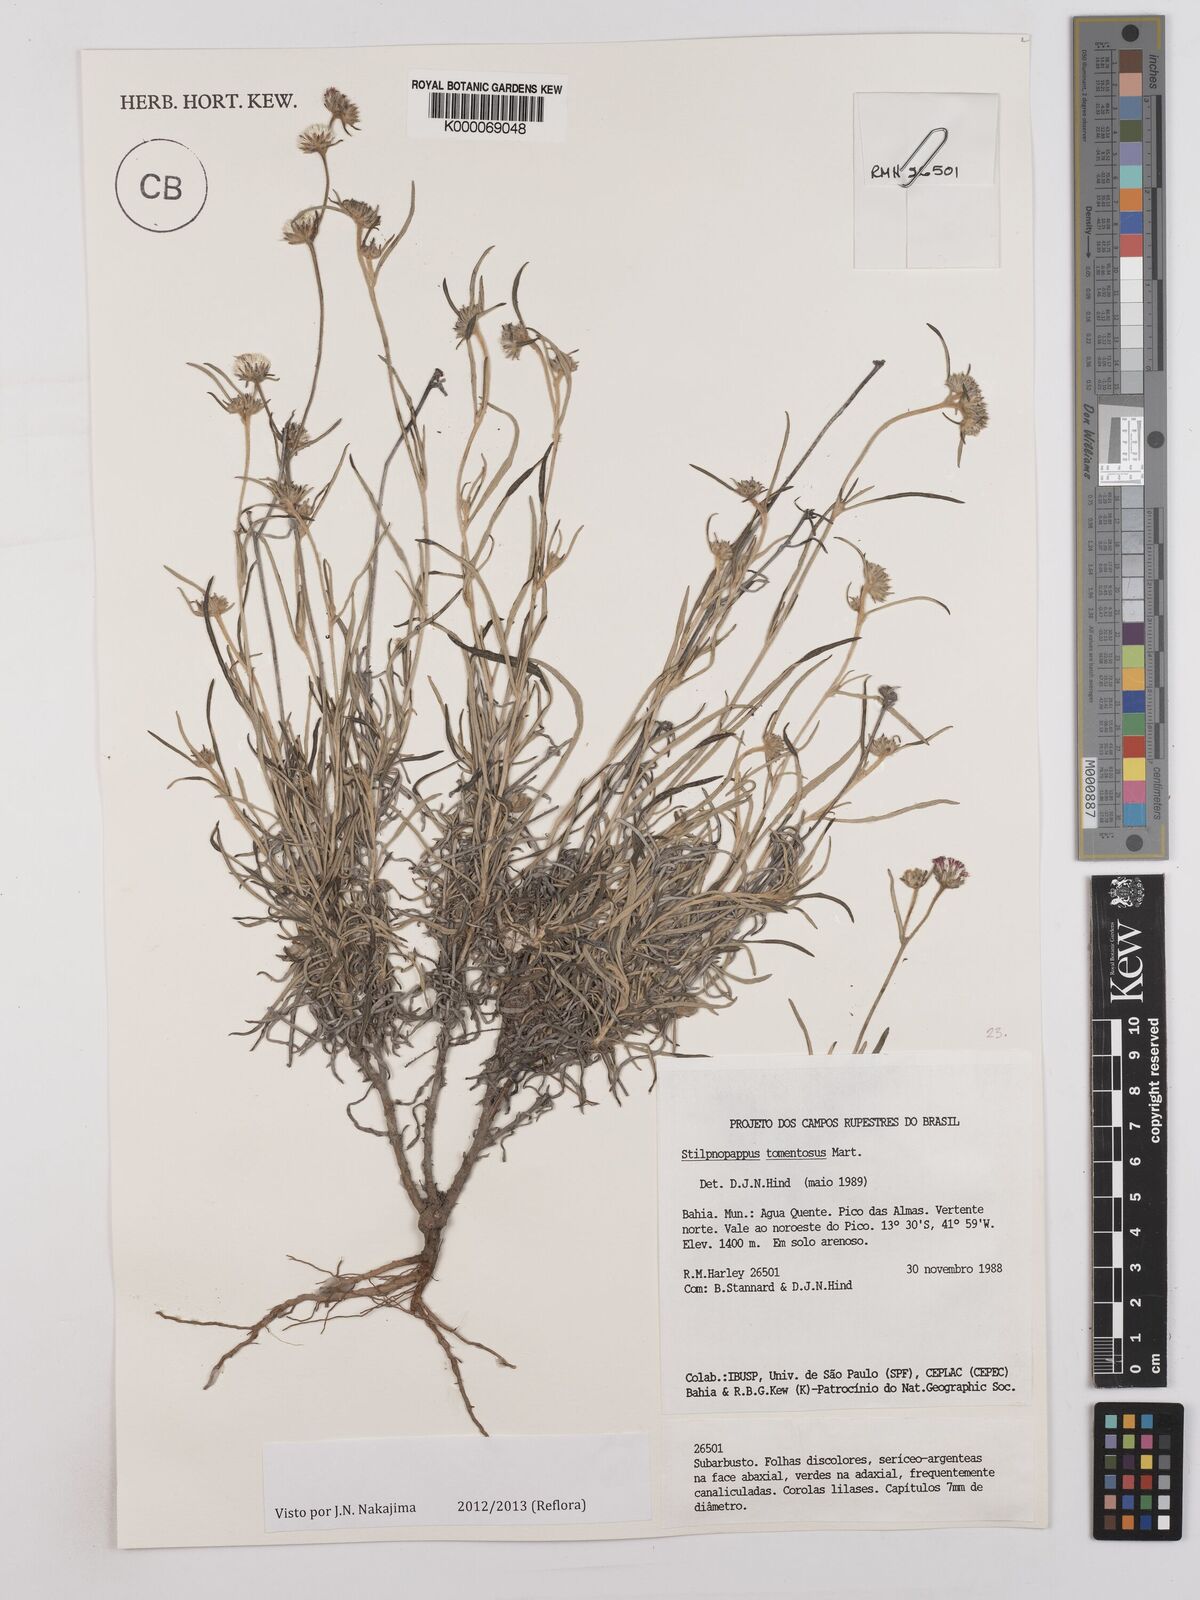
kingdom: Plantae
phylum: Tracheophyta
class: Magnoliopsida
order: Asterales
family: Asteraceae
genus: Stilpnopappus
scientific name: Stilpnopappus tomentosus
